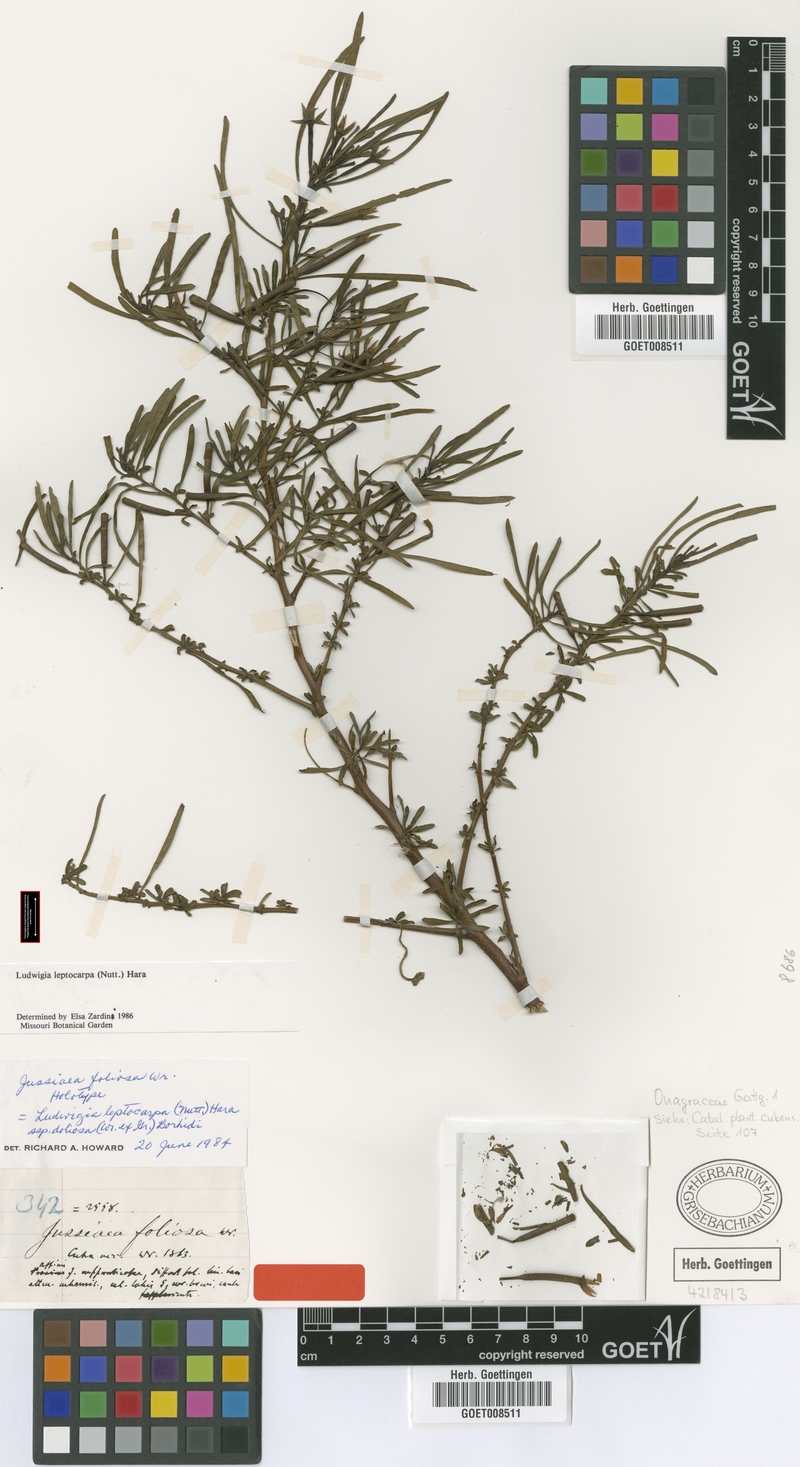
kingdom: Plantae
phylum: Tracheophyta
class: Magnoliopsida
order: Myrtales
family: Onagraceae
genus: Ludwigia
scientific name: Ludwigia leptocarpa
